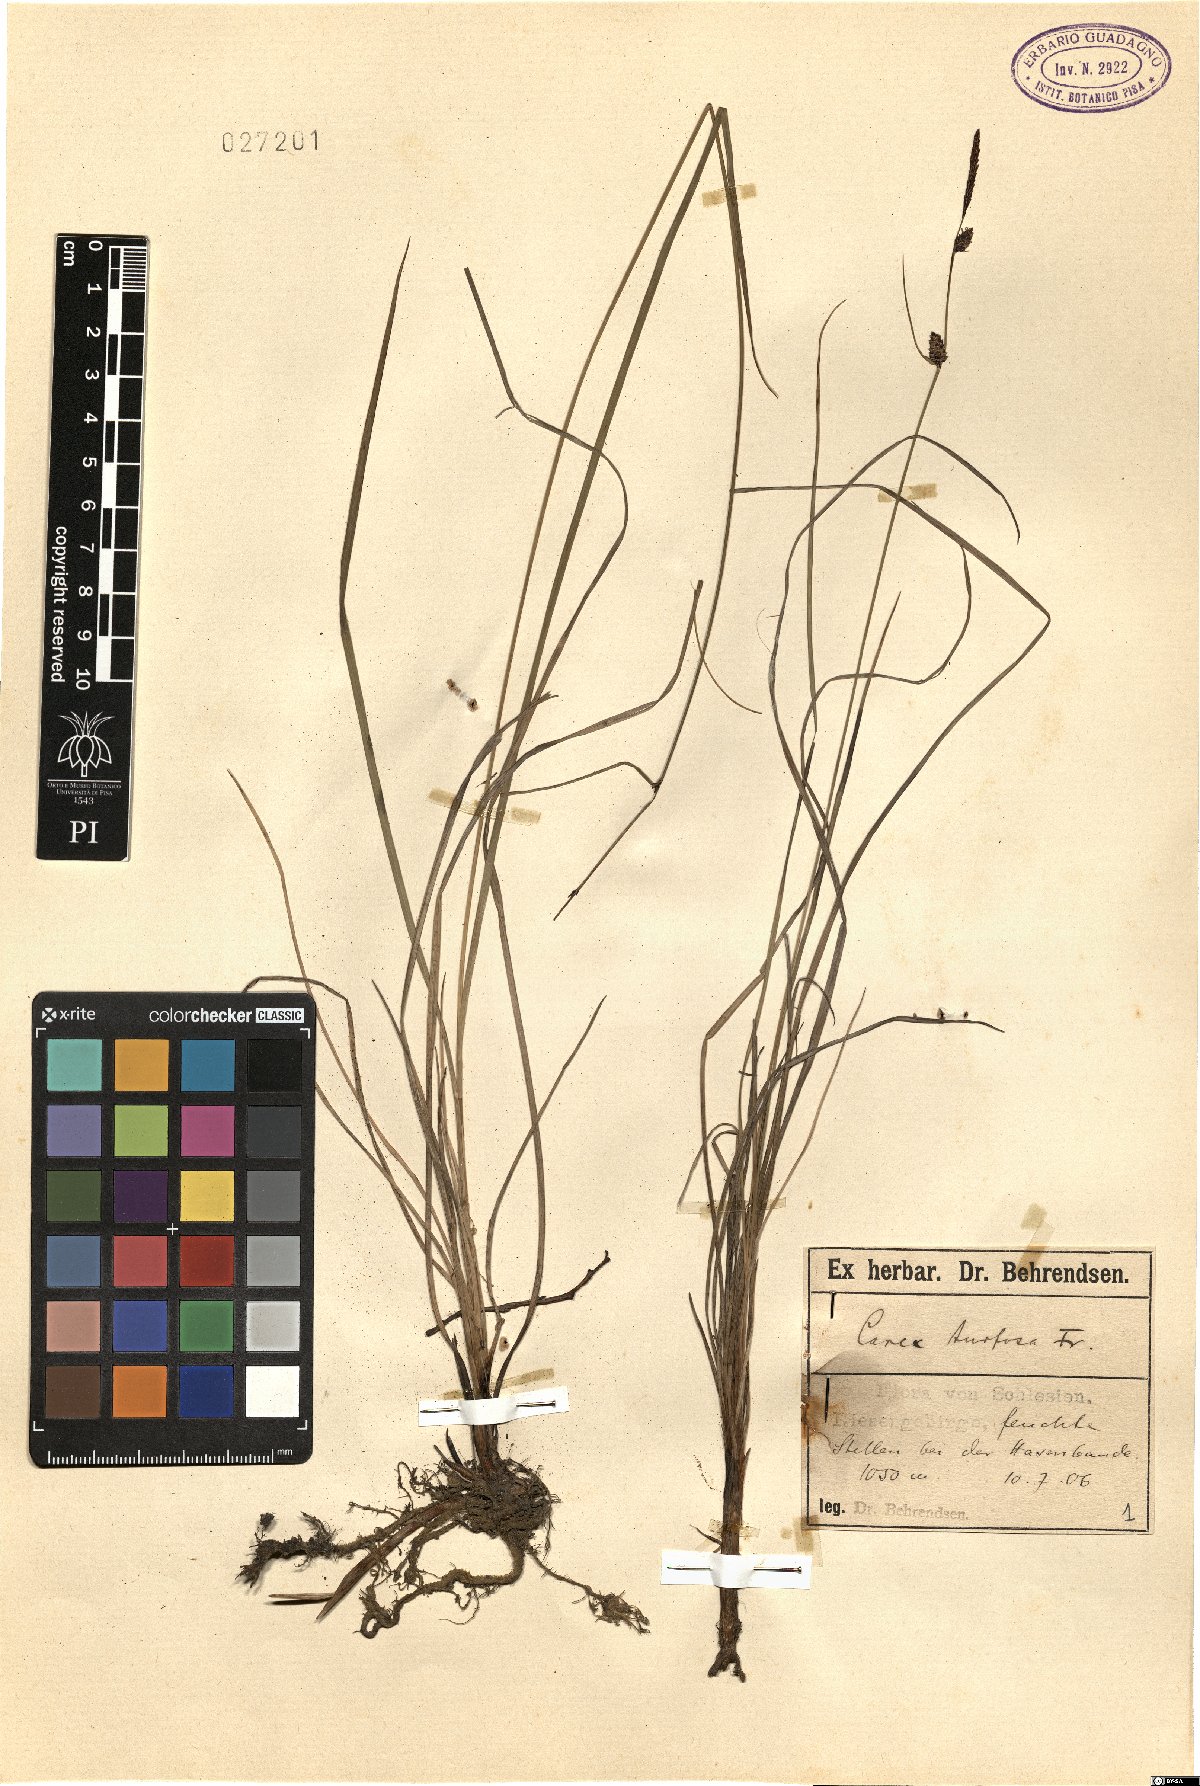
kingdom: Plantae
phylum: Tracheophyta
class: Liliopsida
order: Poales
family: Cyperaceae
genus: Carex
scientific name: Carex turfosa
